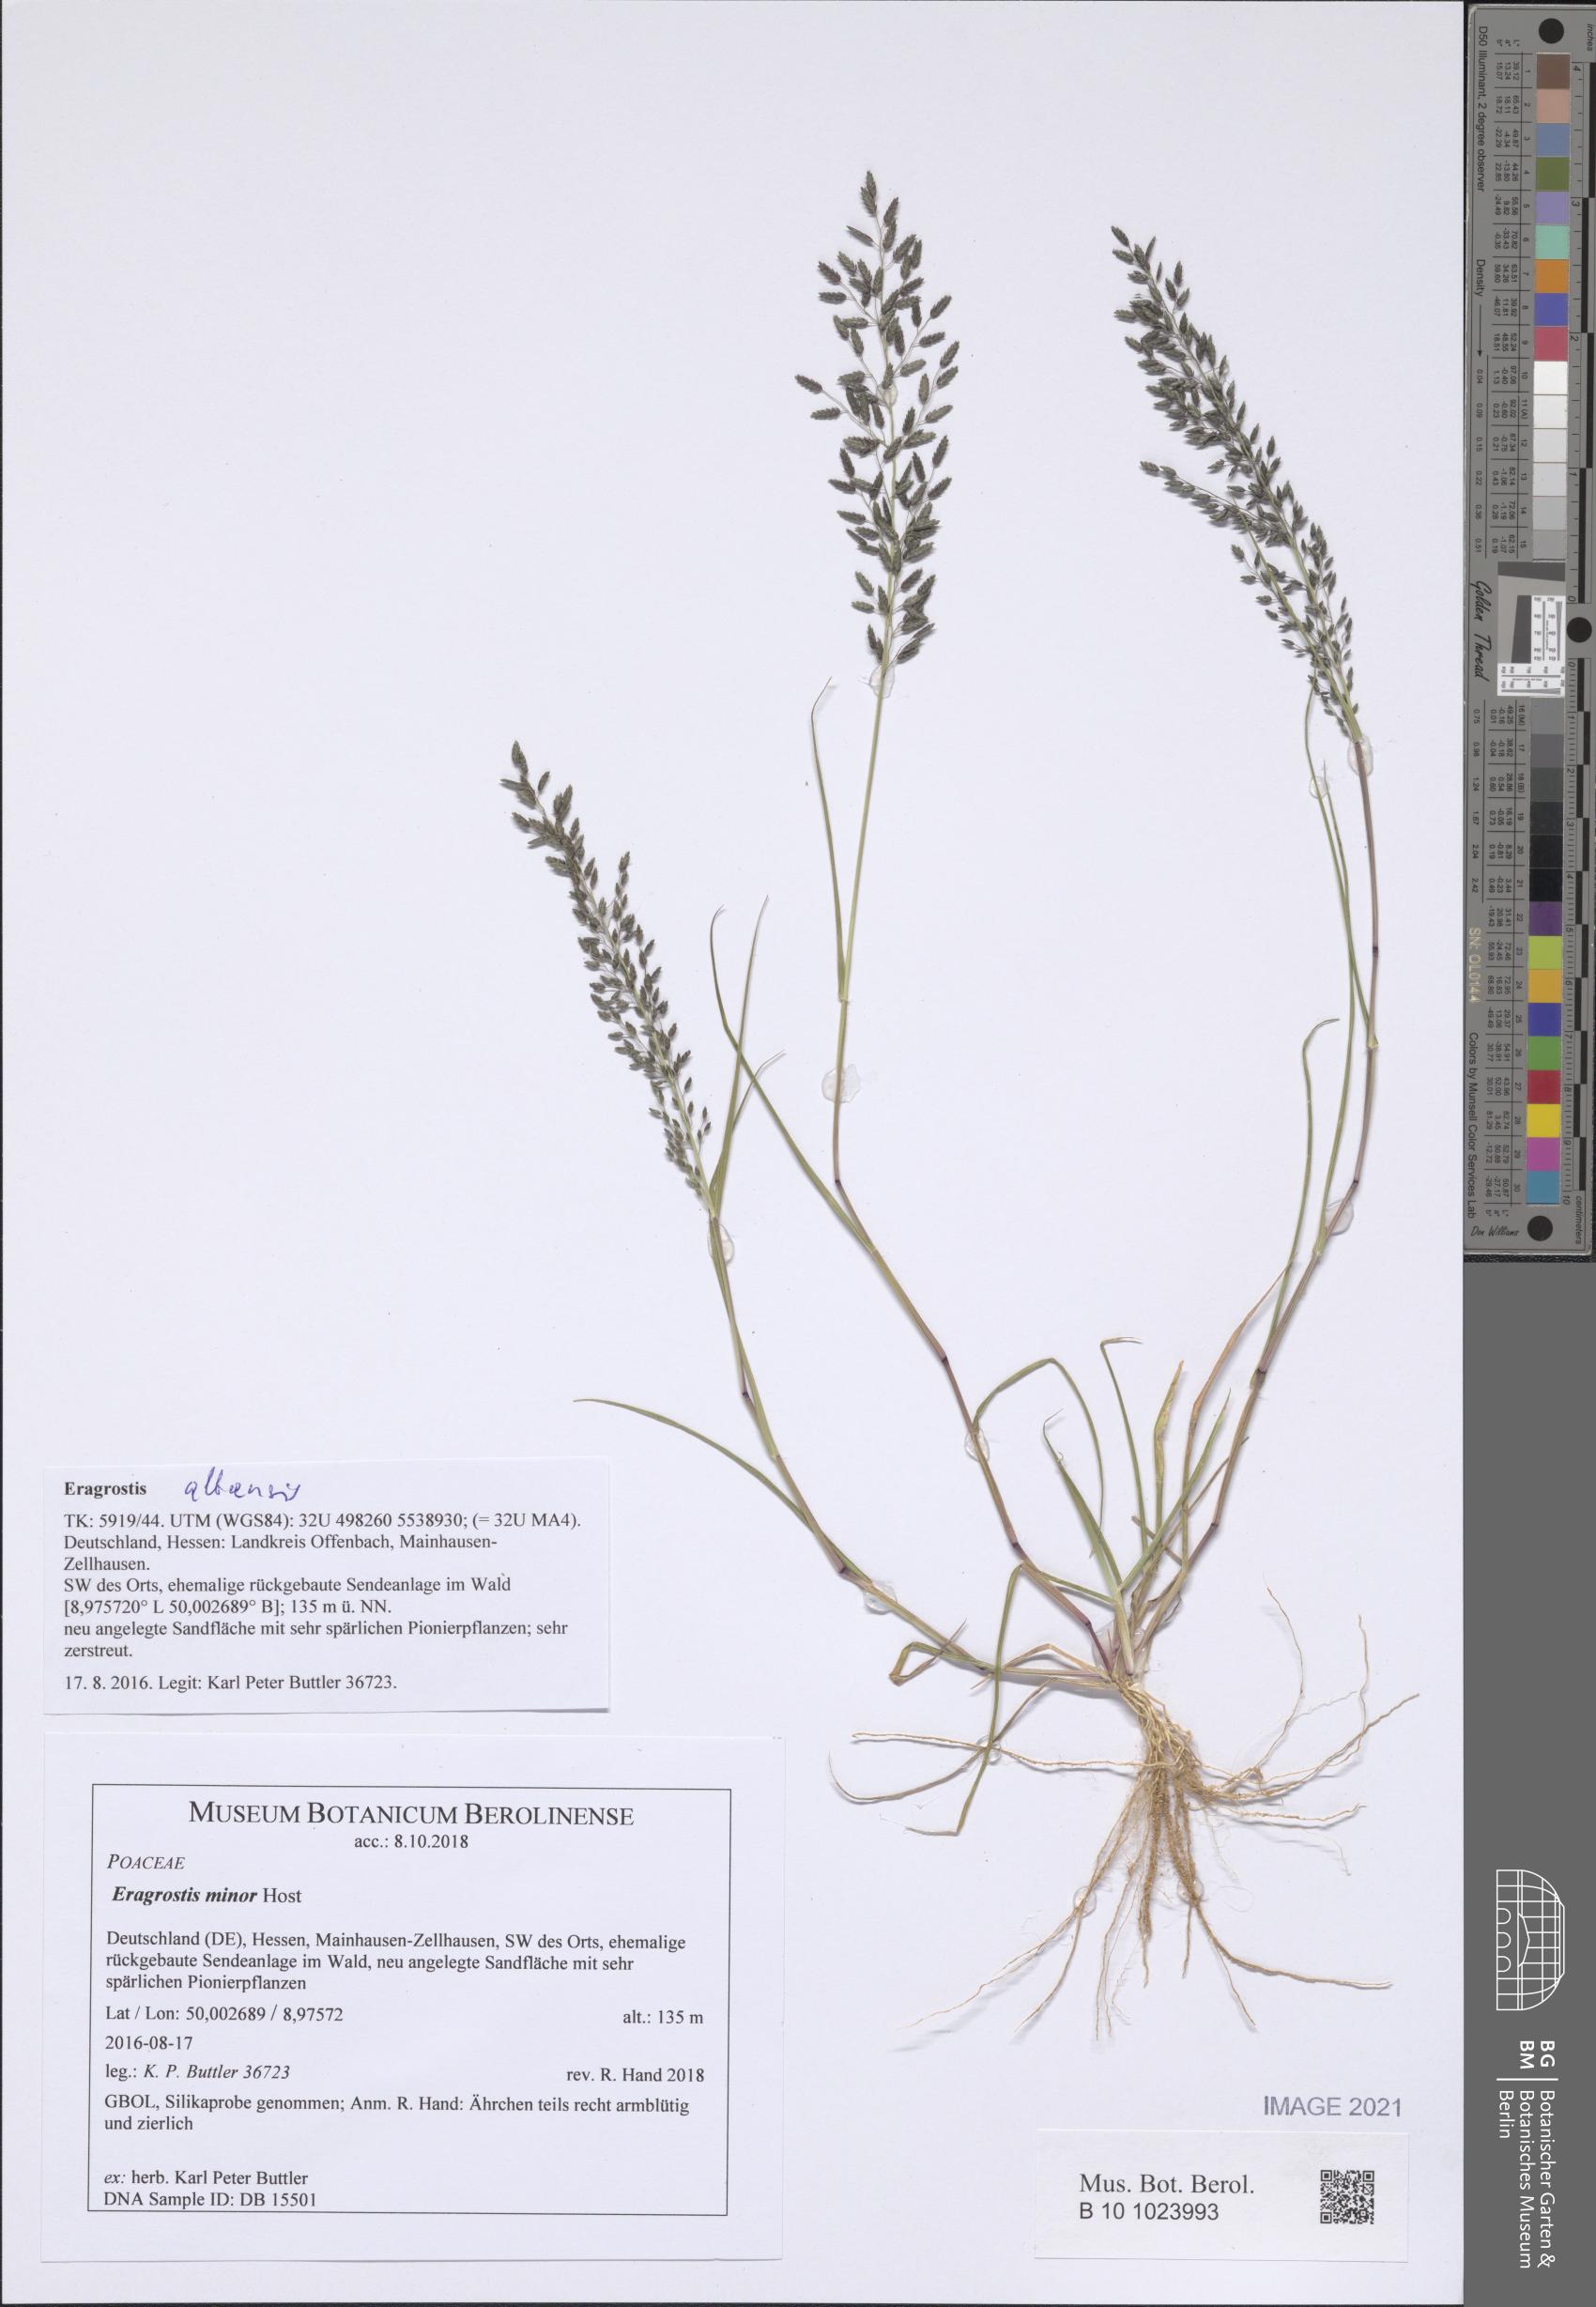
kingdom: Plantae
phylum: Tracheophyta
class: Liliopsida
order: Poales
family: Poaceae
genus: Eragrostis
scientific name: Eragrostis minor
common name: Small love-grass
